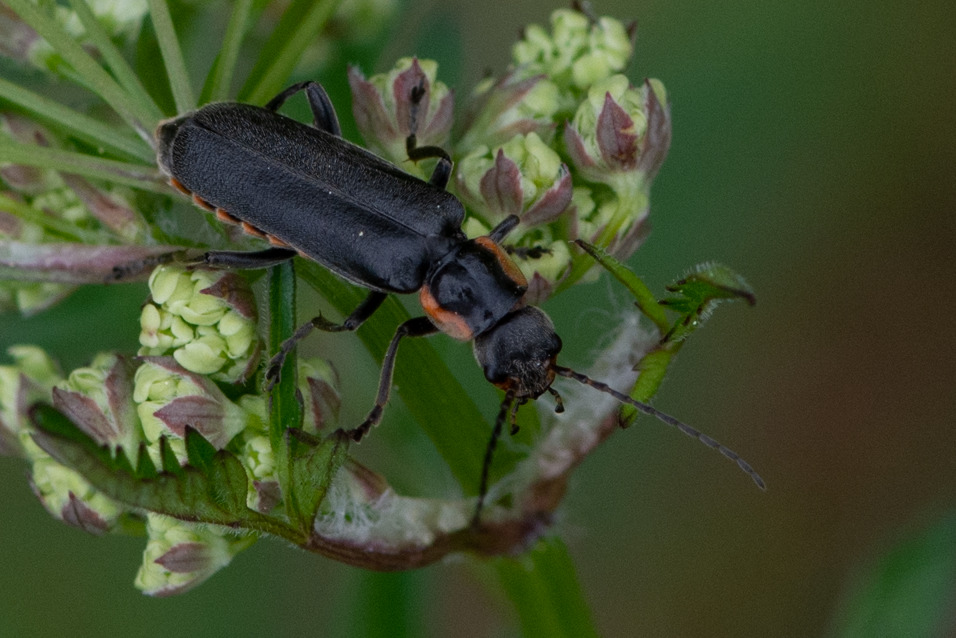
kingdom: Animalia
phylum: Arthropoda
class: Insecta
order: Coleoptera
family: Cantharidae
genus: Cantharis
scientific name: Cantharis obscura
